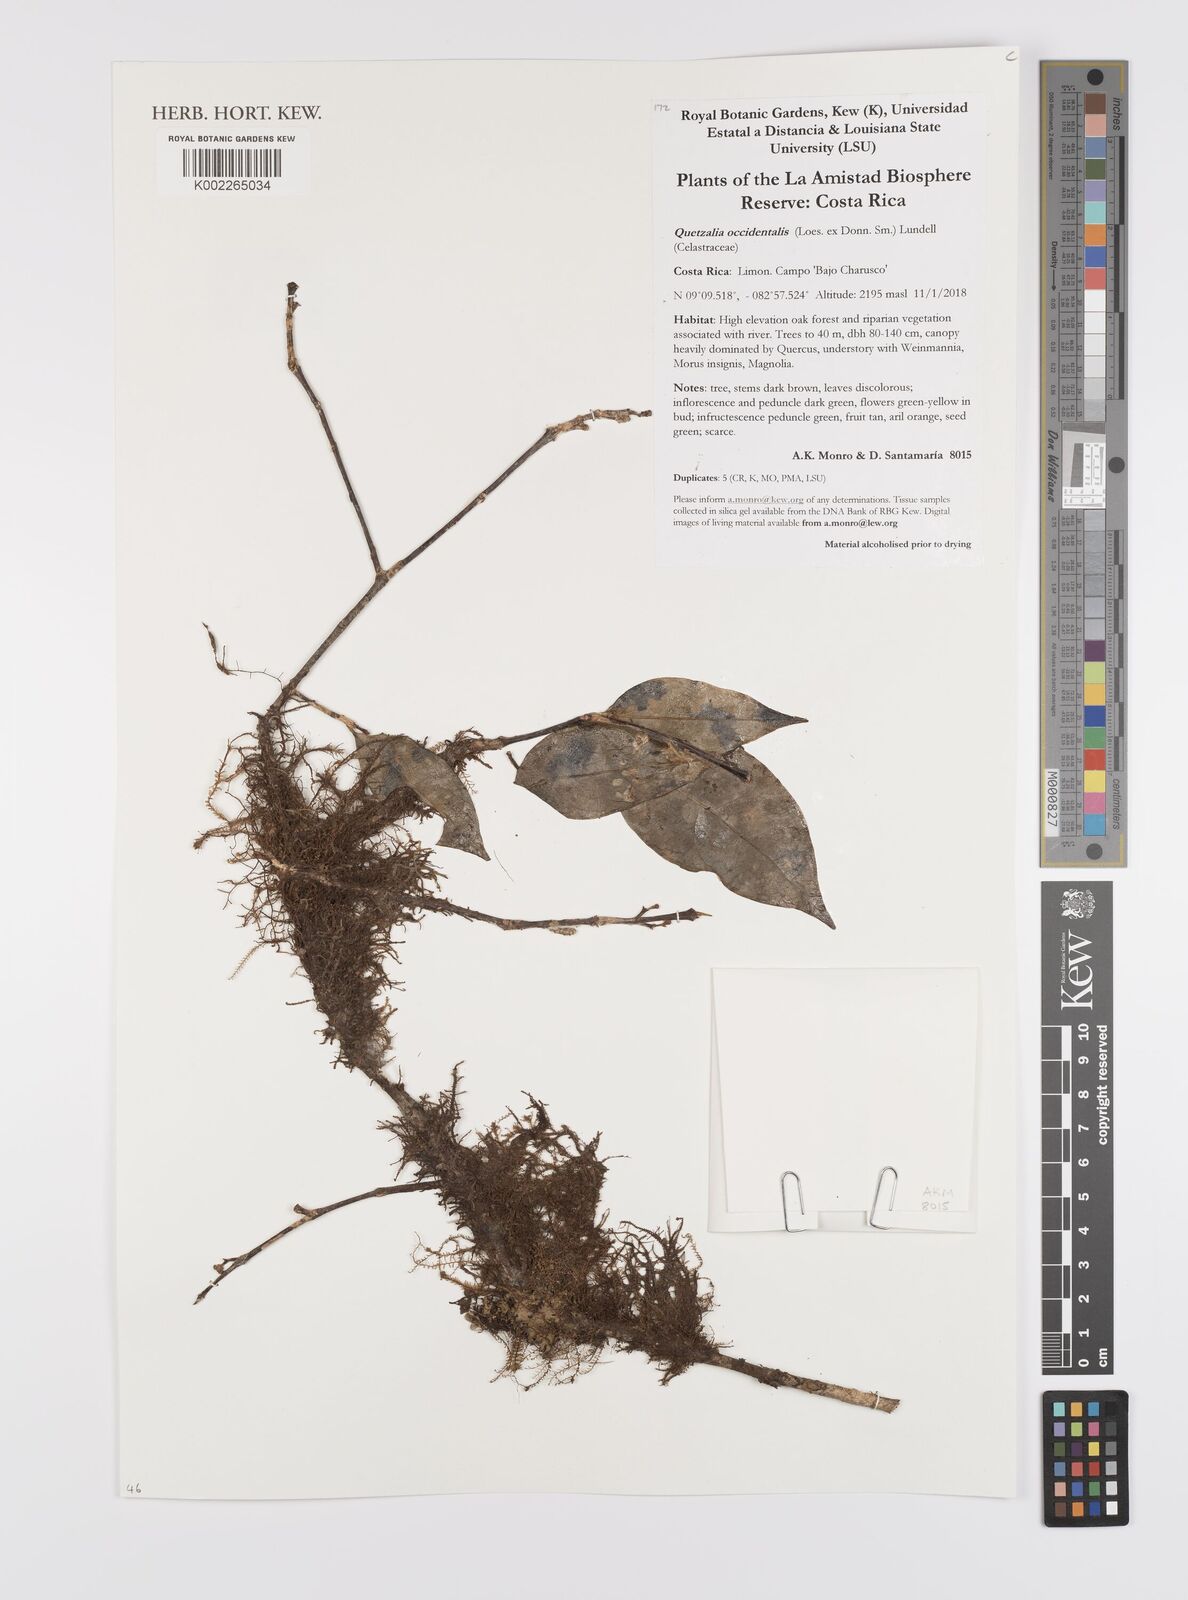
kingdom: Plantae
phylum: Tracheophyta
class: Magnoliopsida
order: Celastrales
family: Celastraceae
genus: Quetzalia
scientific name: Quetzalia occidentalis
